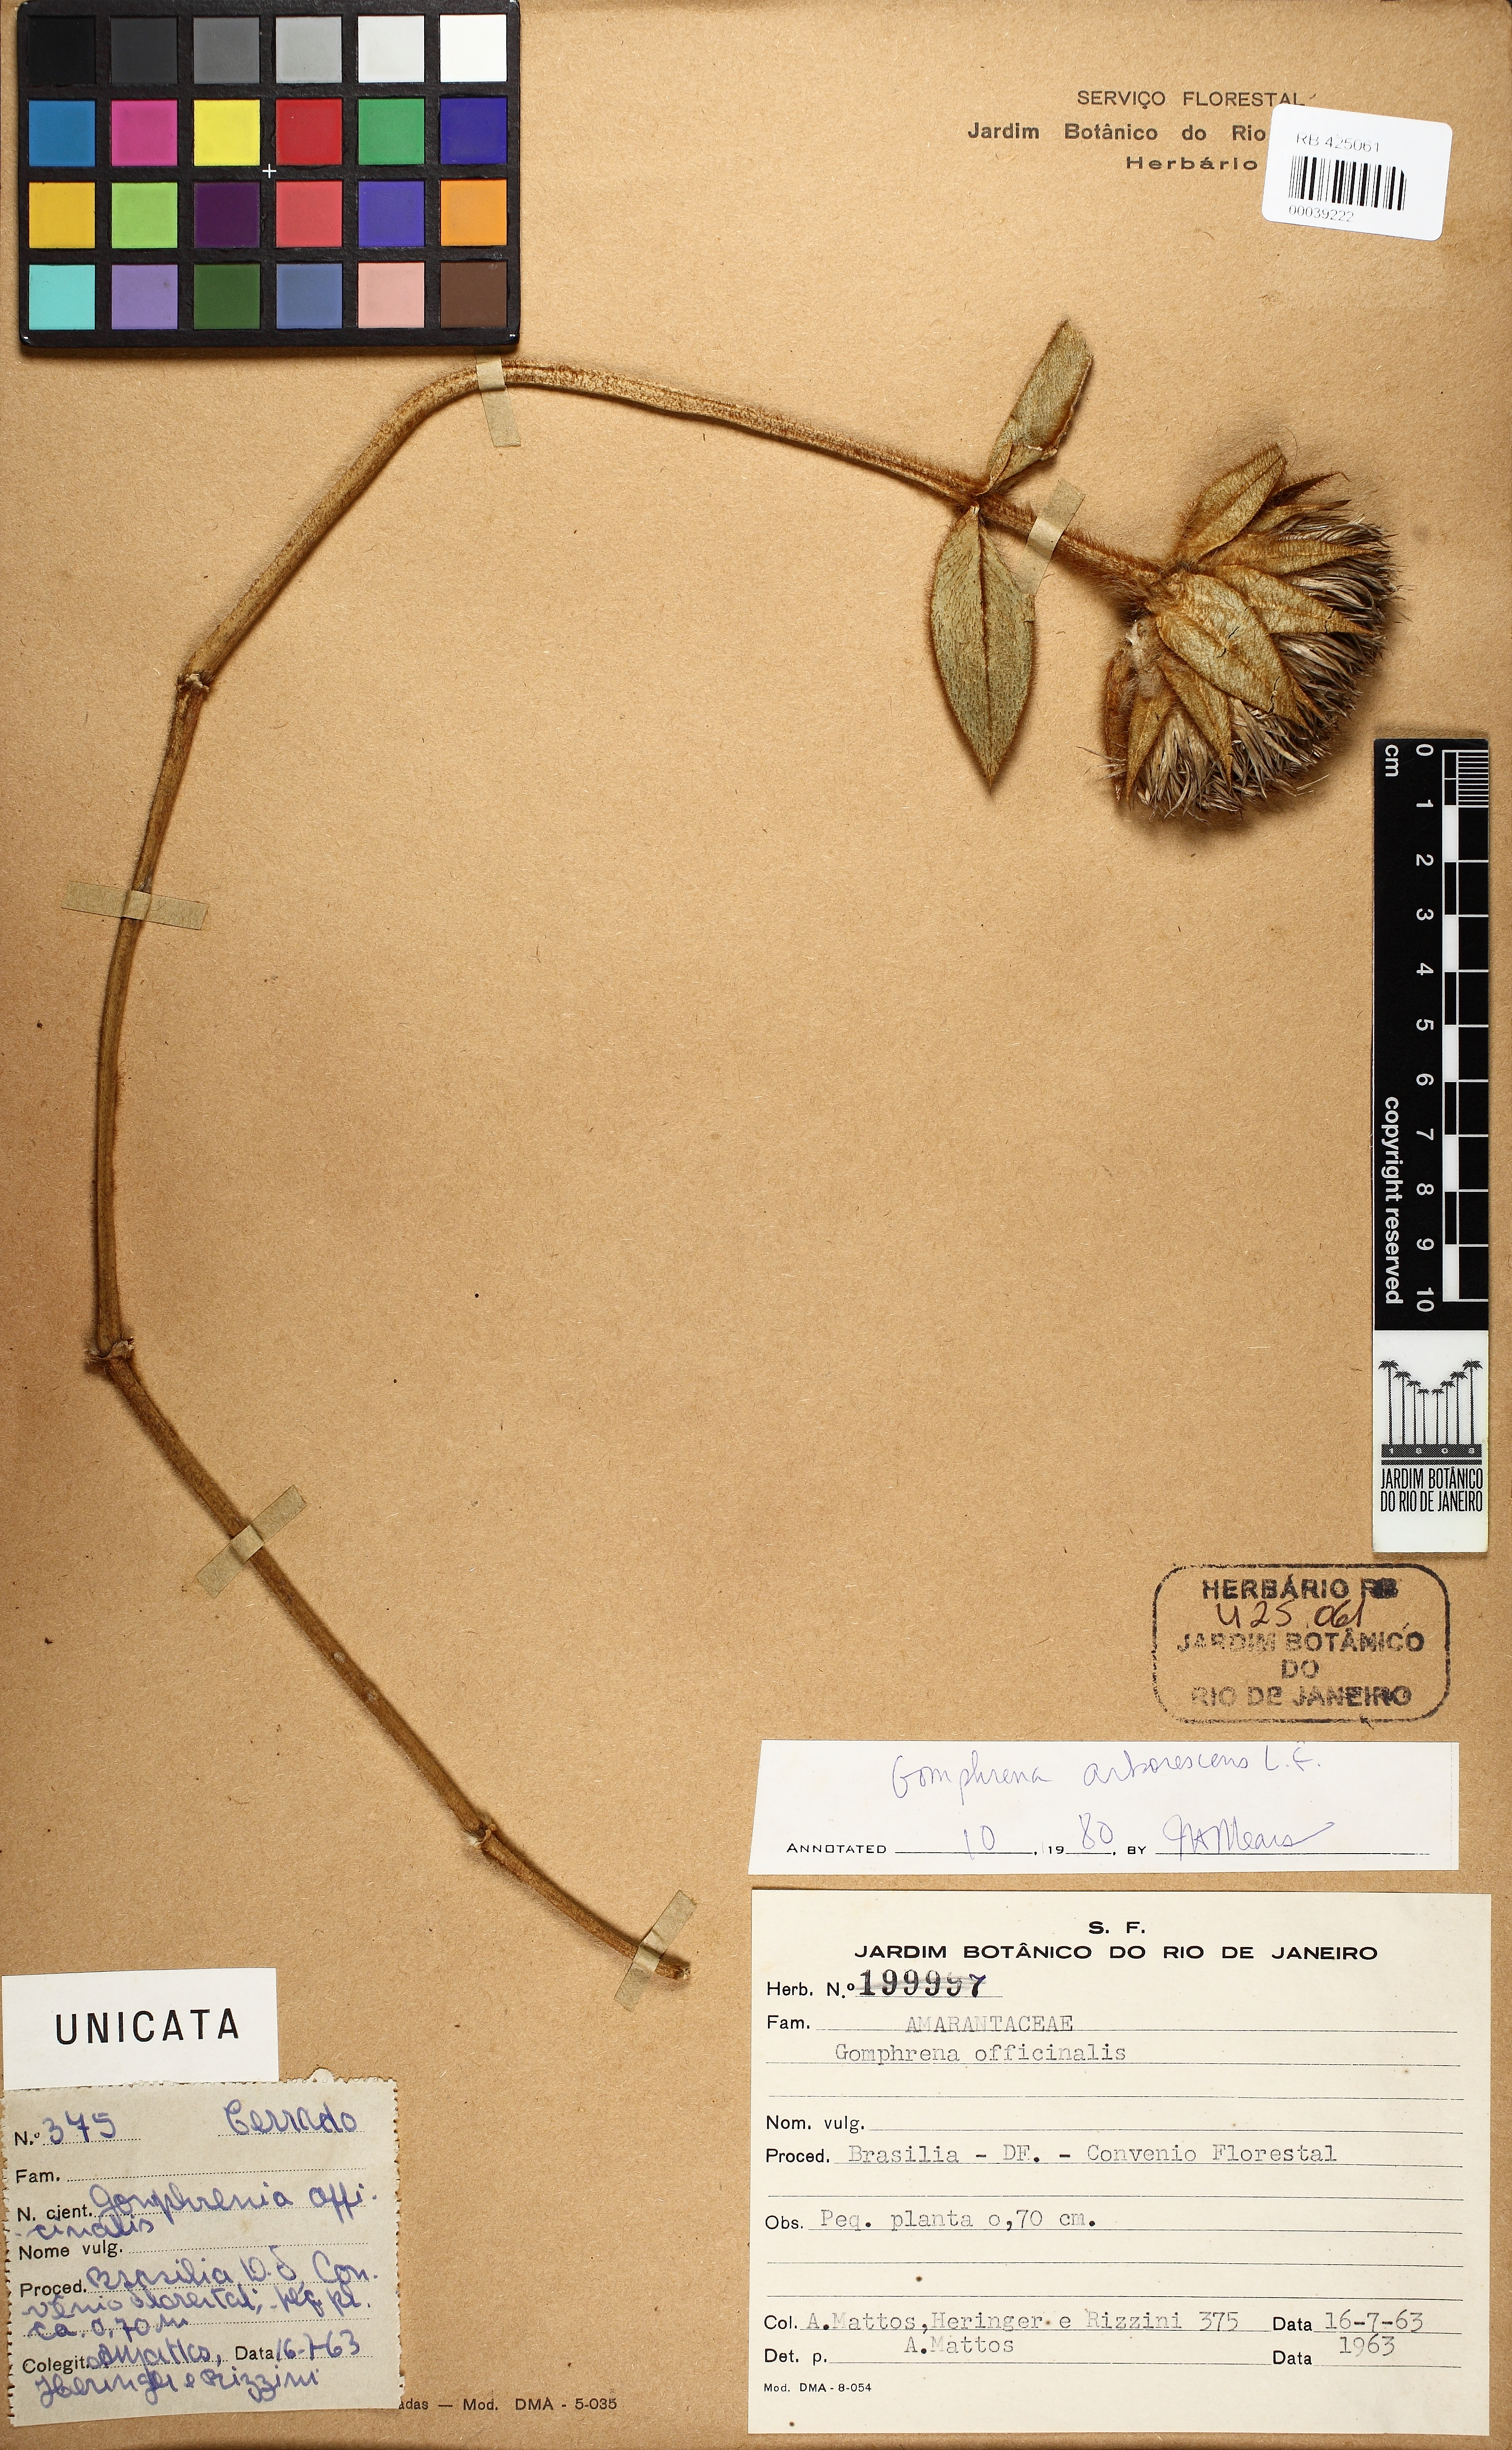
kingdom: Plantae
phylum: Tracheophyta
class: Magnoliopsida
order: Caryophyllales
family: Amaranthaceae
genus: Gomphrena
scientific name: Gomphrena arborescens
